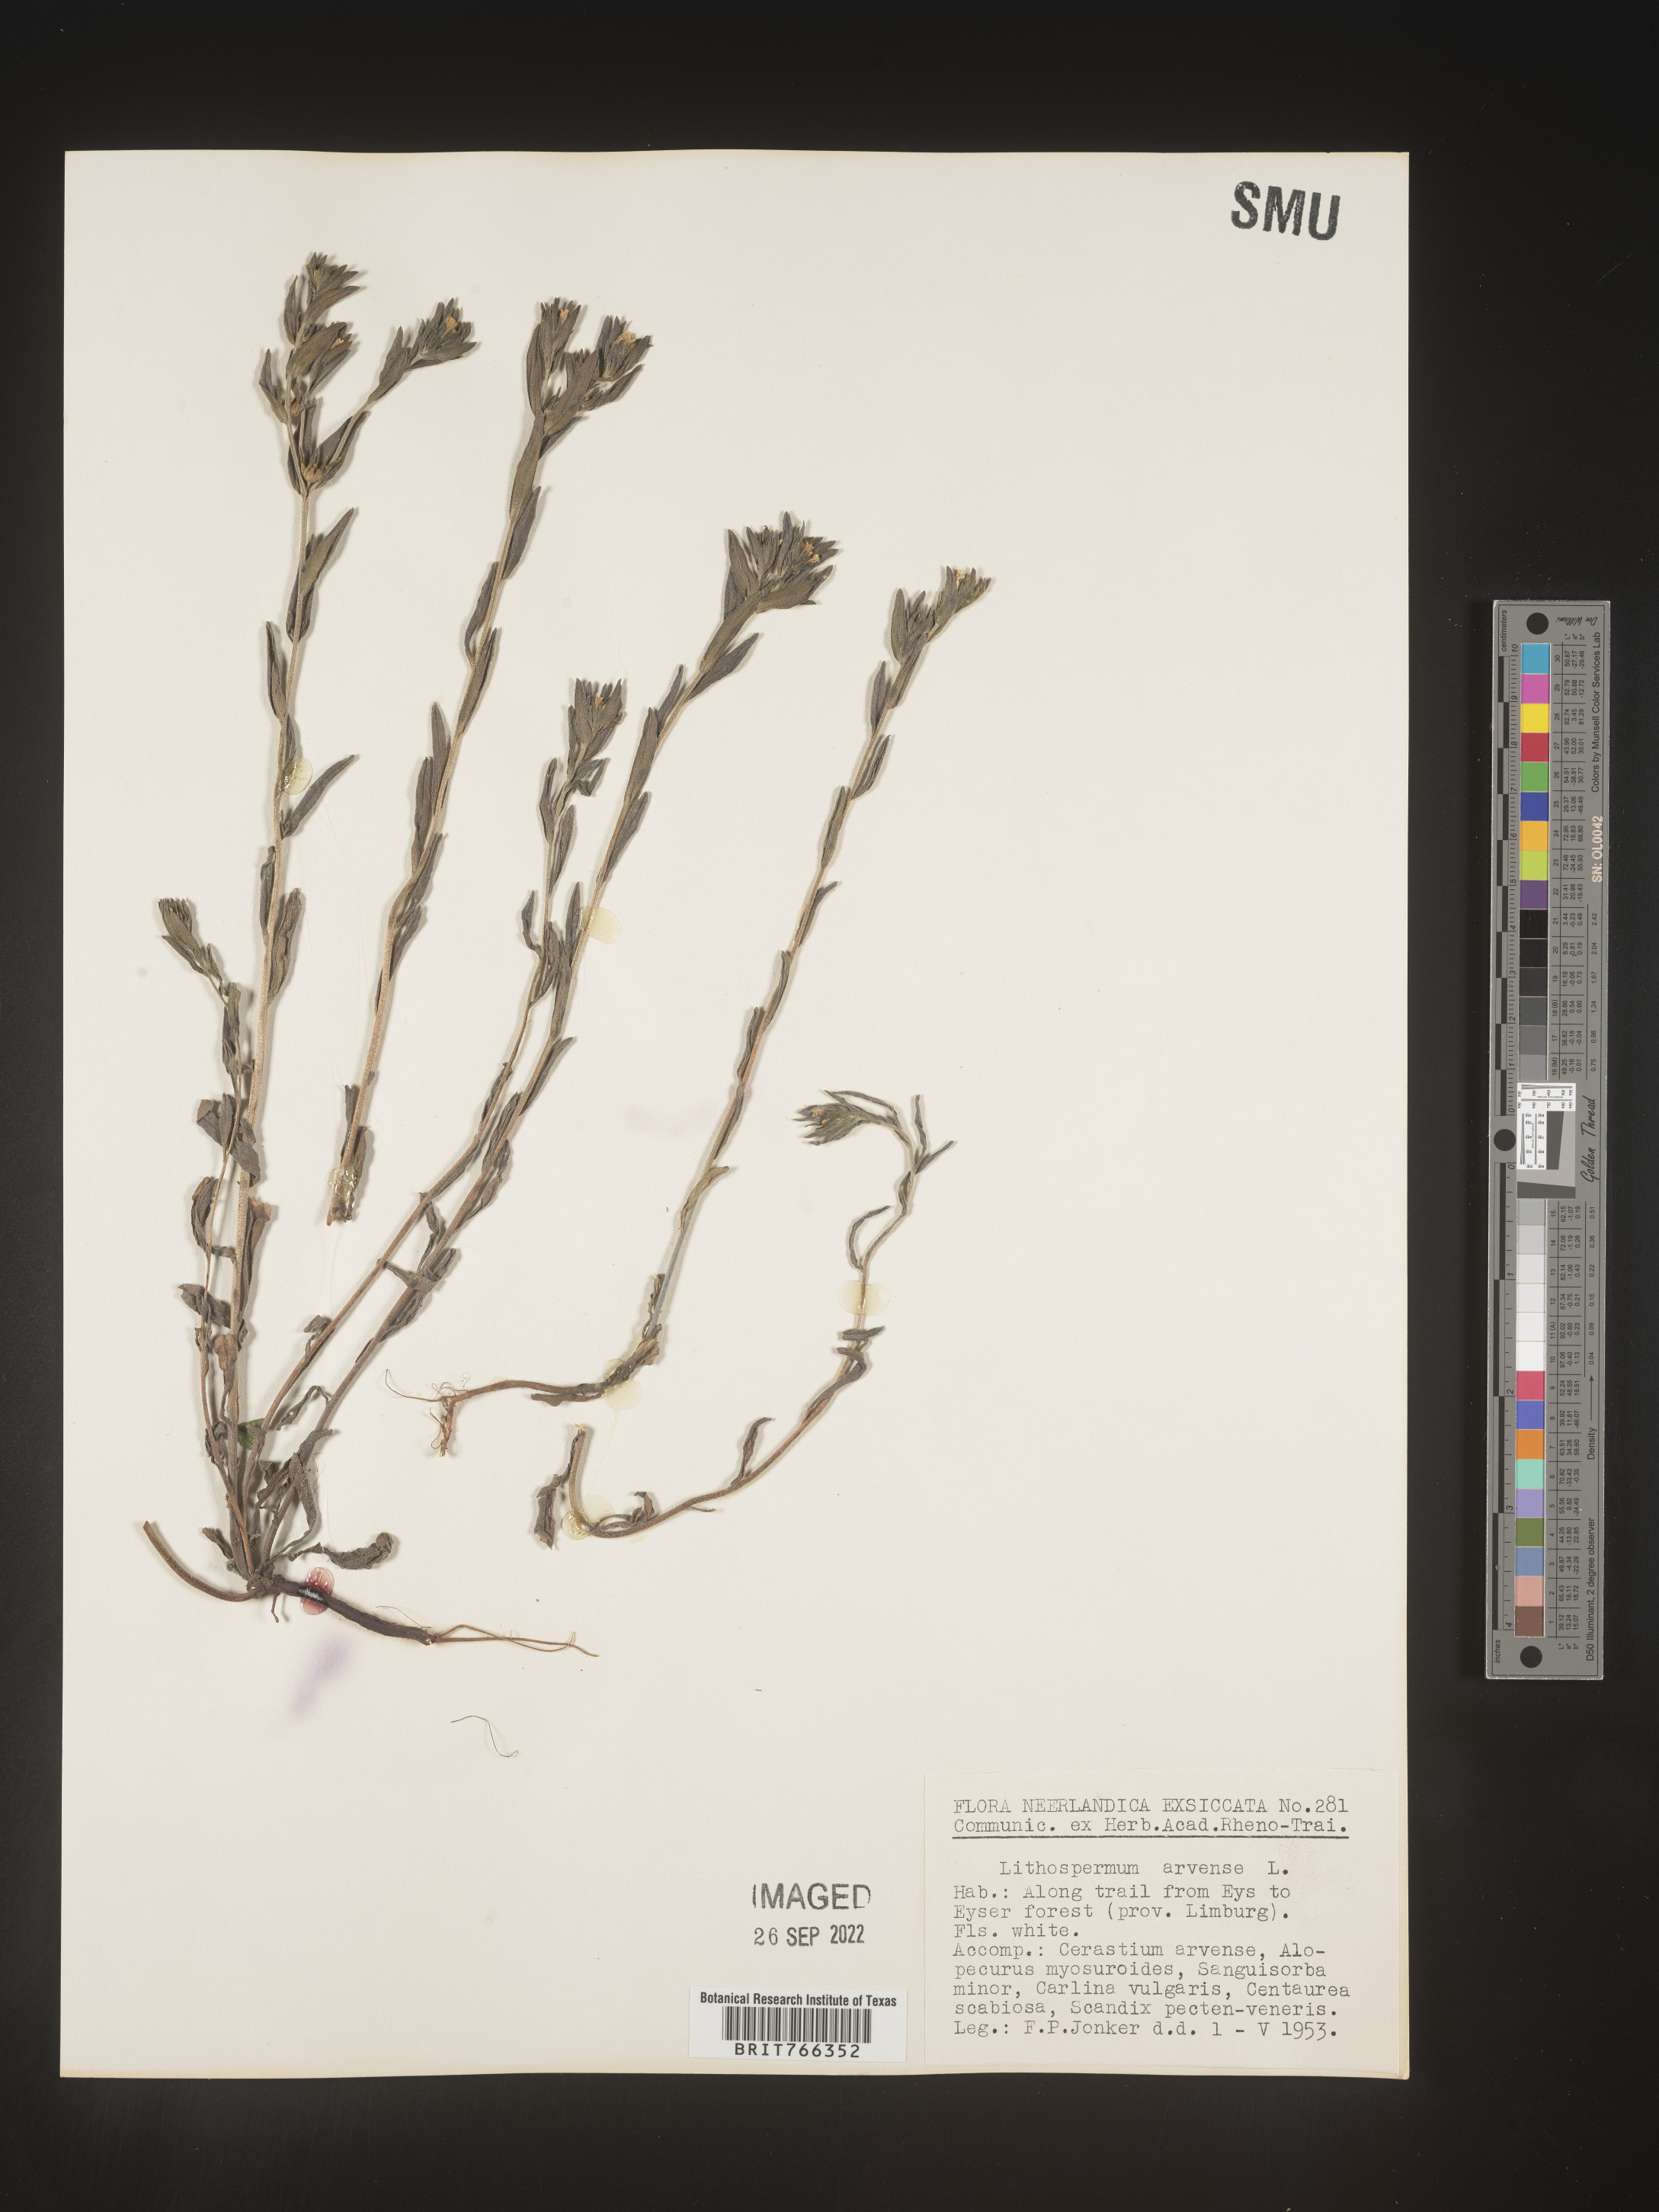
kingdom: Plantae
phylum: Tracheophyta
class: Magnoliopsida
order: Boraginales
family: Boraginaceae
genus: Buglossoides
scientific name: Buglossoides
